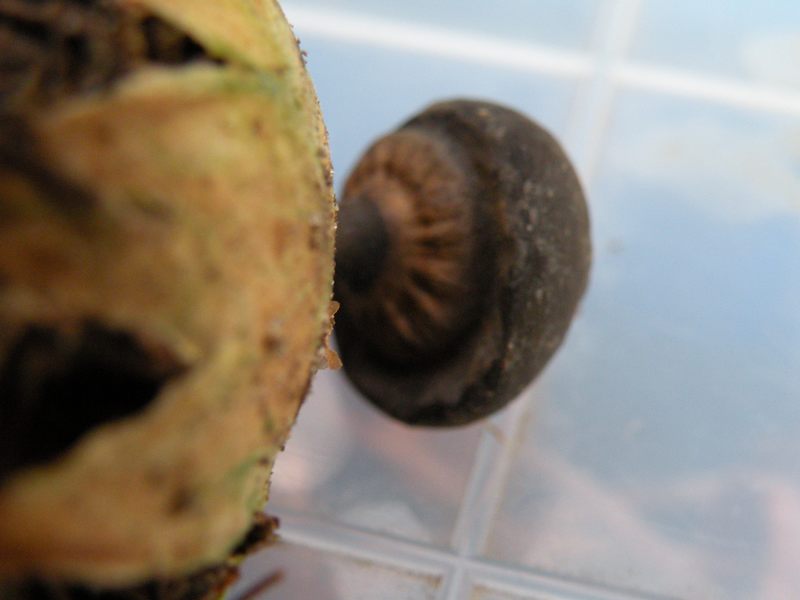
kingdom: Fungi
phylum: Basidiomycota
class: Agaricomycetes
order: Geastrales
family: Geastraceae
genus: Geastrum
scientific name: Geastrum pectinatum
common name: stilket stjernebold
